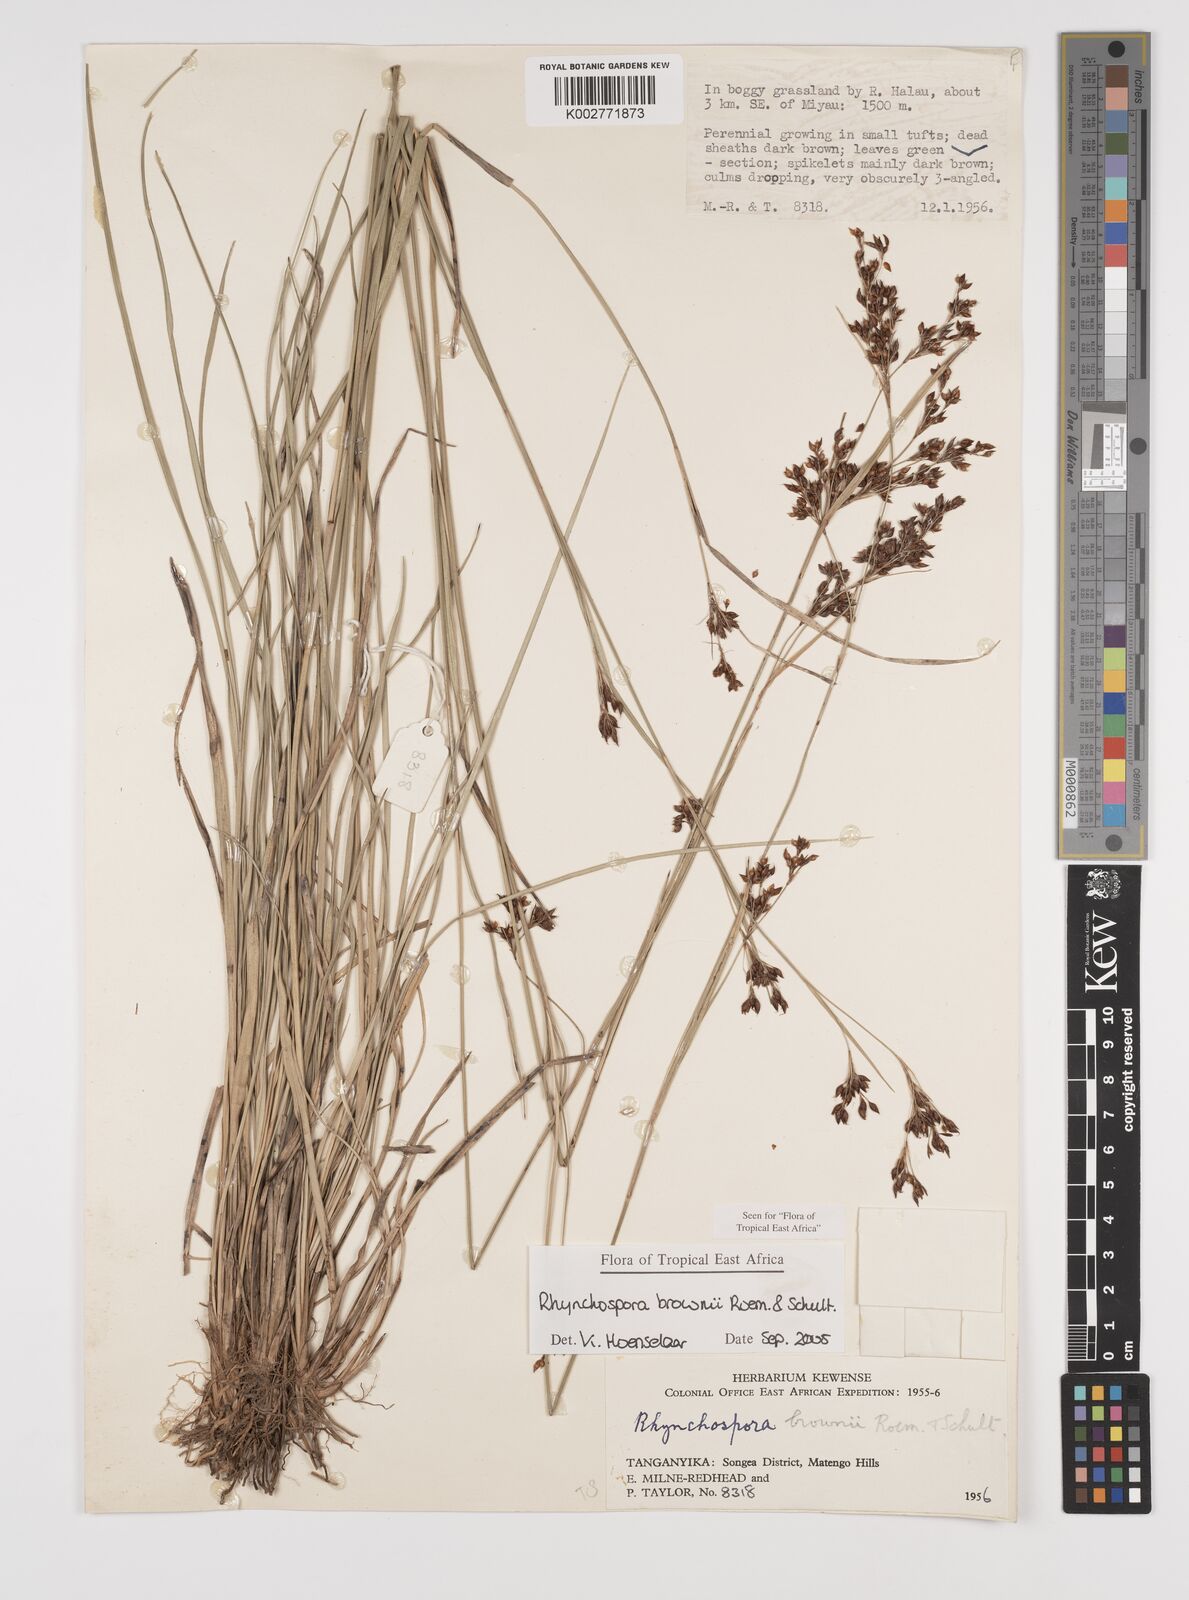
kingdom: Plantae
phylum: Tracheophyta
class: Liliopsida
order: Poales
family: Cyperaceae
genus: Rhynchospora
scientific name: Rhynchospora brownii
